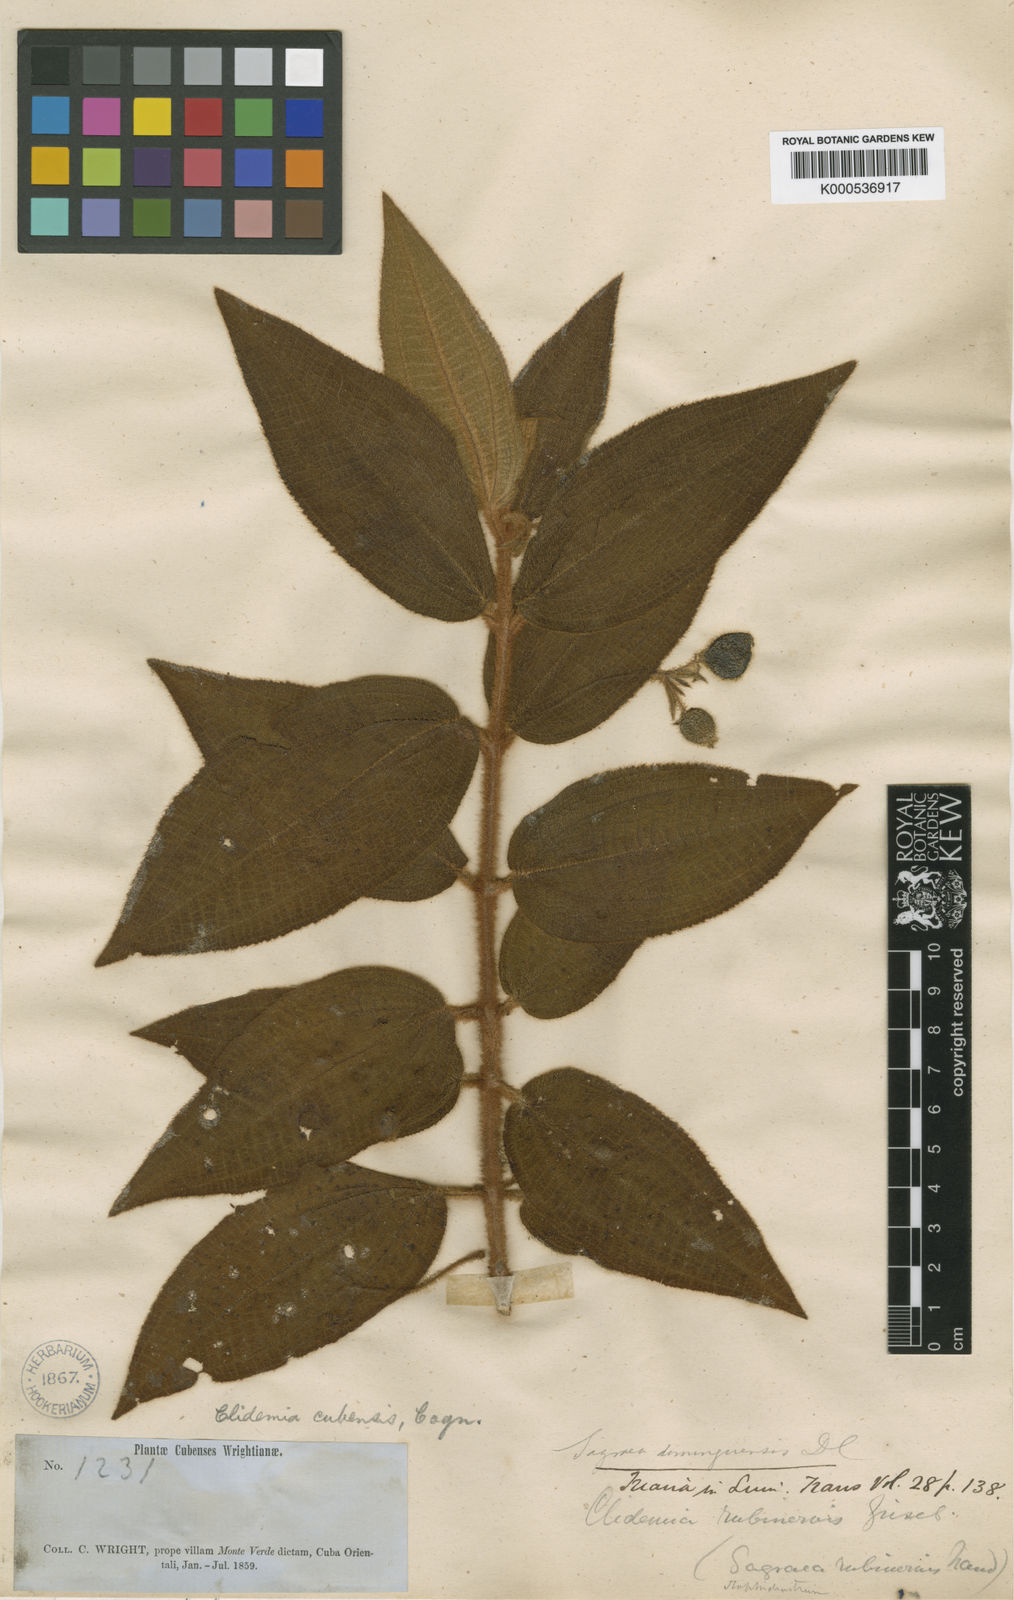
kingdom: Plantae
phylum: Tracheophyta
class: Magnoliopsida
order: Myrtales
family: Melastomataceae
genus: Miconia
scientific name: Miconia rubrinervis
